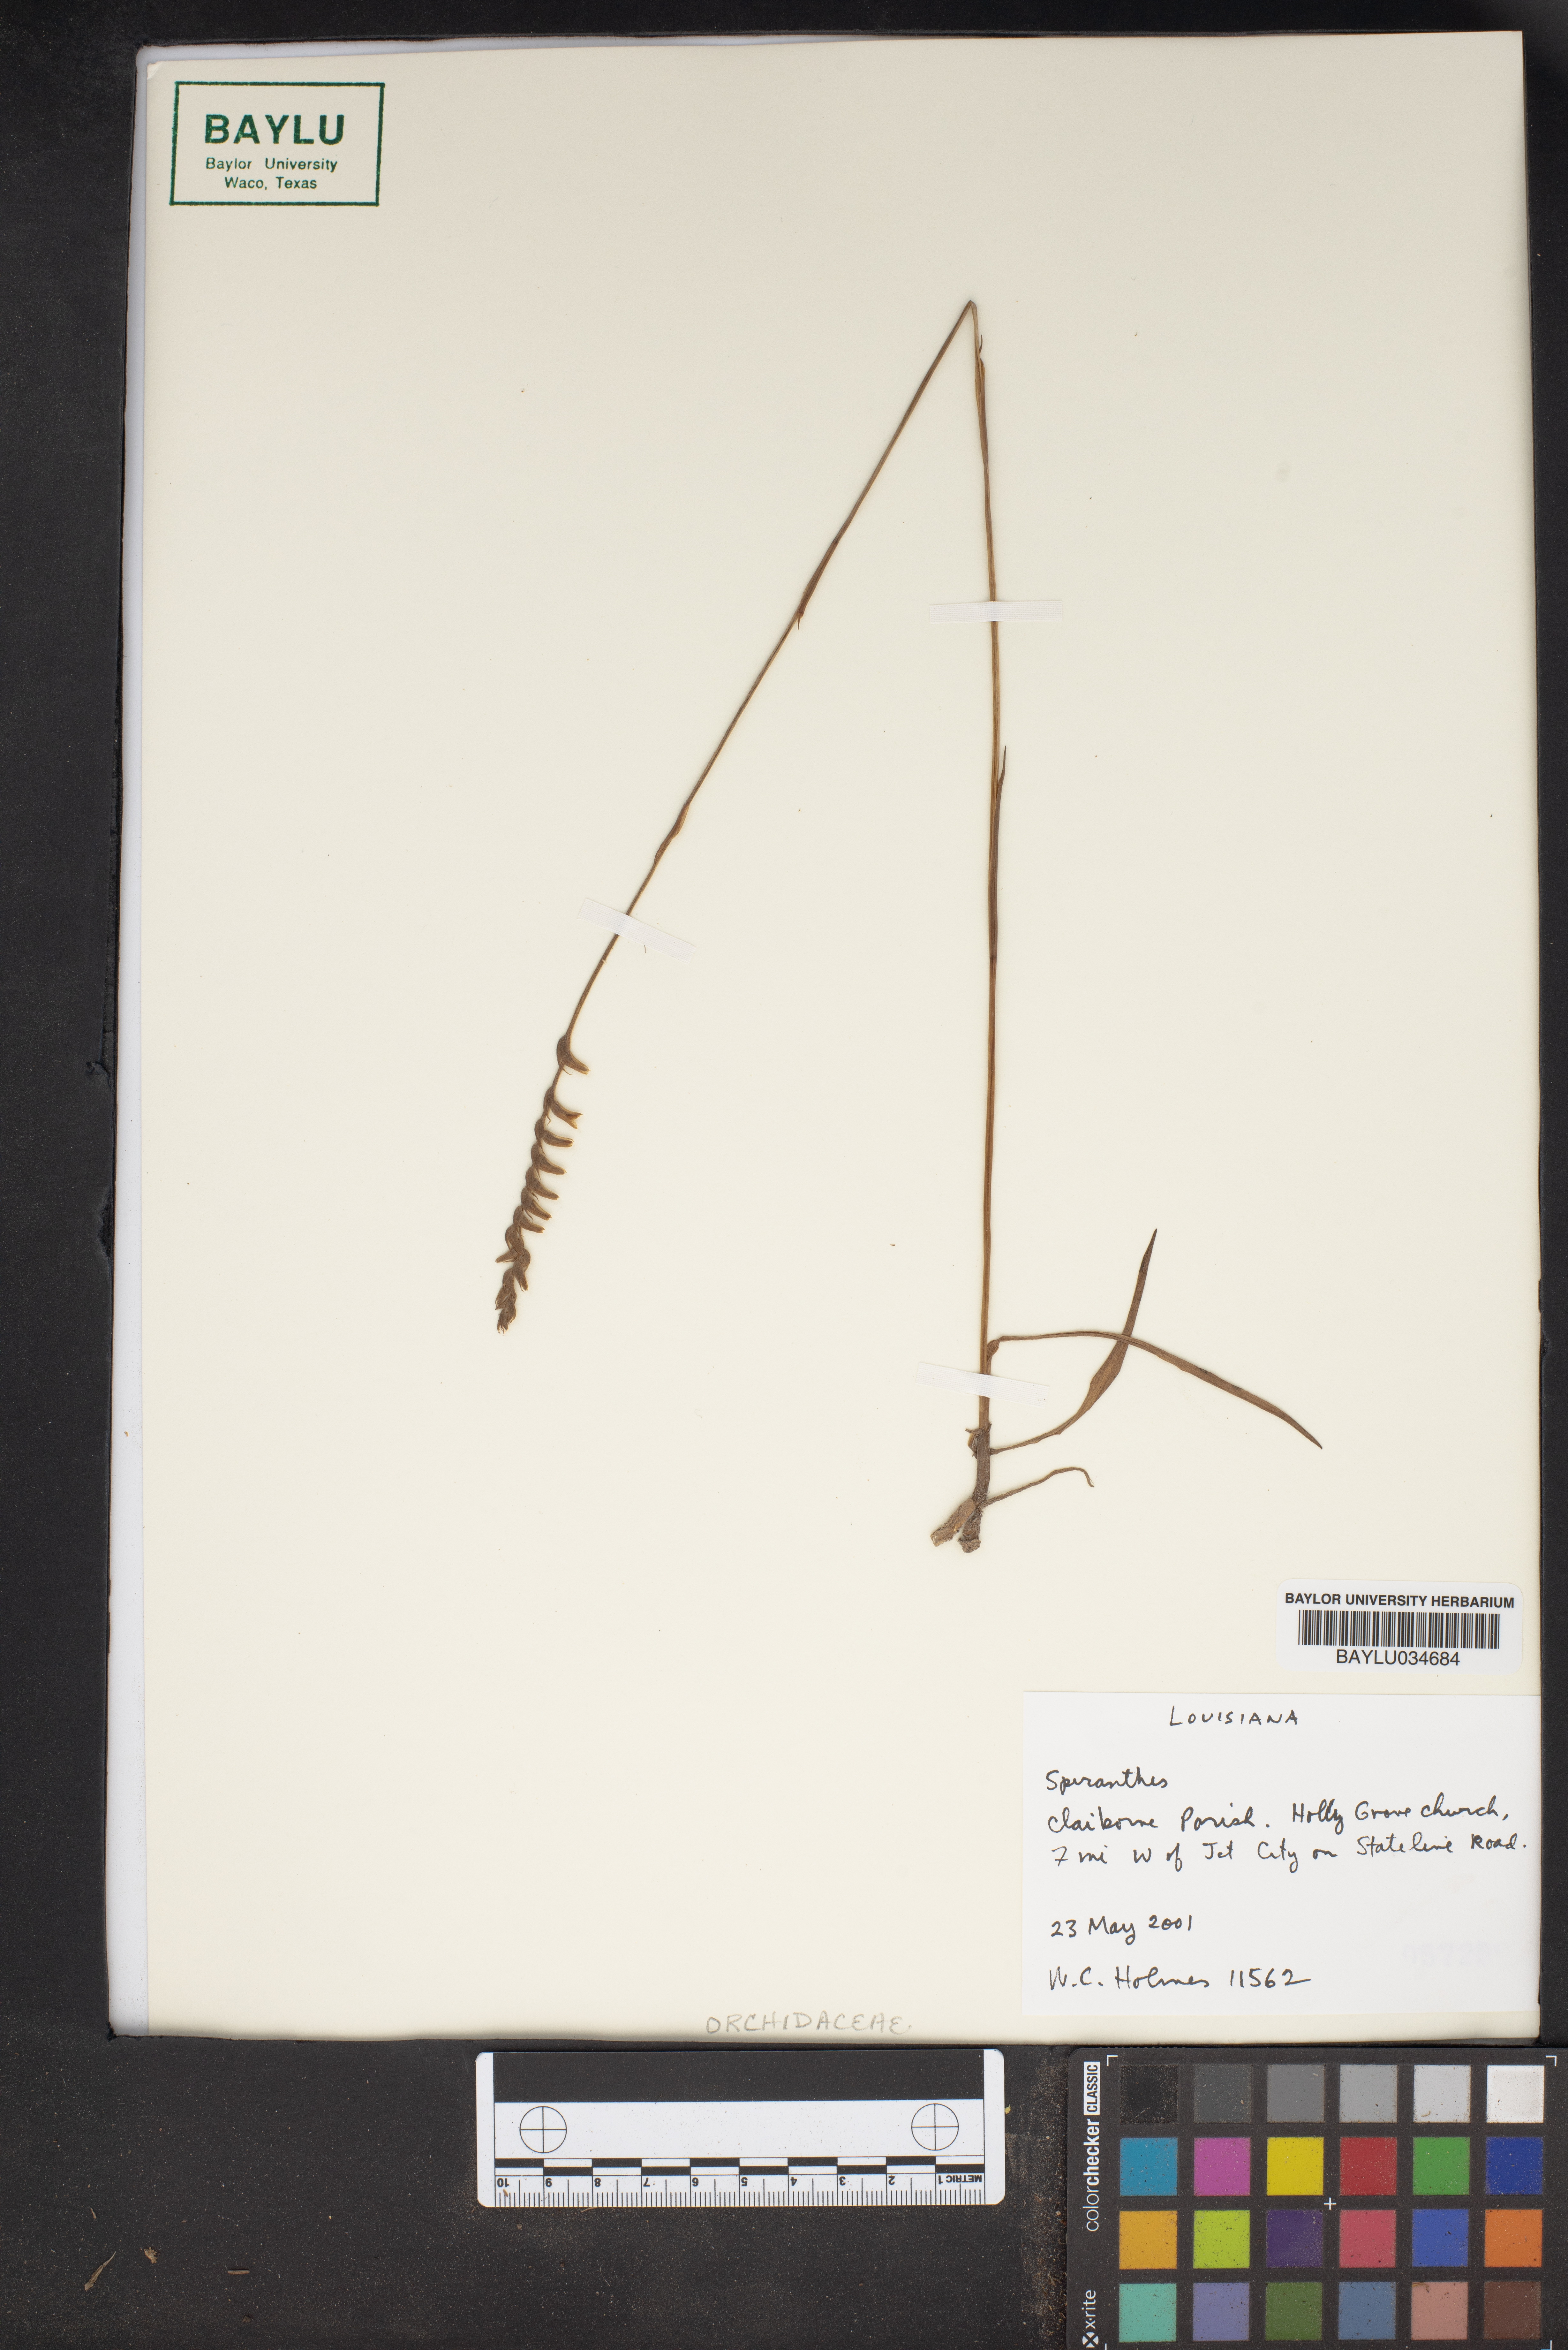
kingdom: Plantae
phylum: Tracheophyta
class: Liliopsida
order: Asparagales
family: Orchidaceae
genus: Spiranthes
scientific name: Spiranthes
